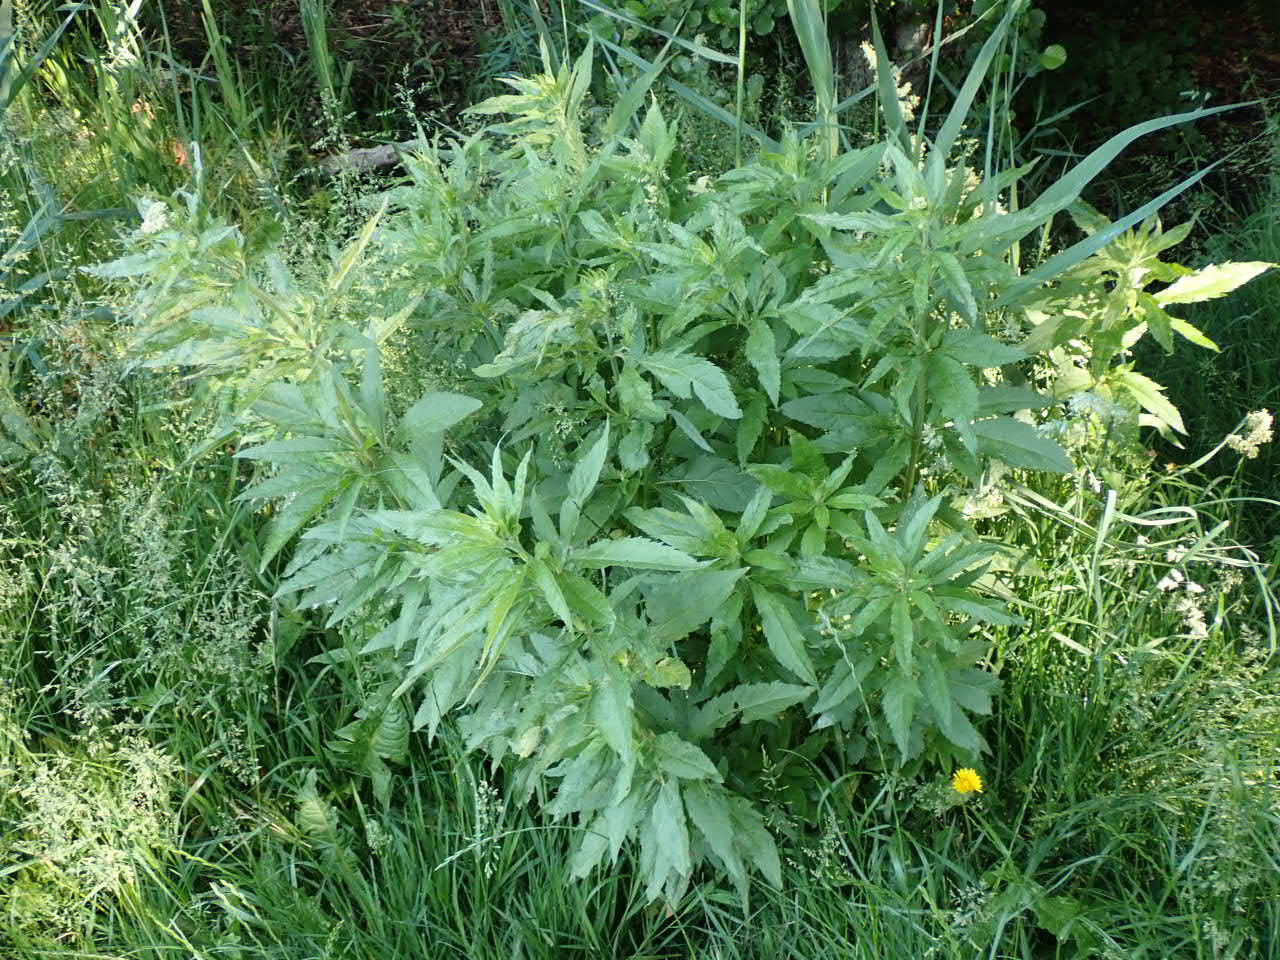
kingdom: Plantae
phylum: Tracheophyta
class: Magnoliopsida
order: Asterales
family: Asteraceae
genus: Eupatorium
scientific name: Eupatorium cannabinum
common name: Hjortetrøst
